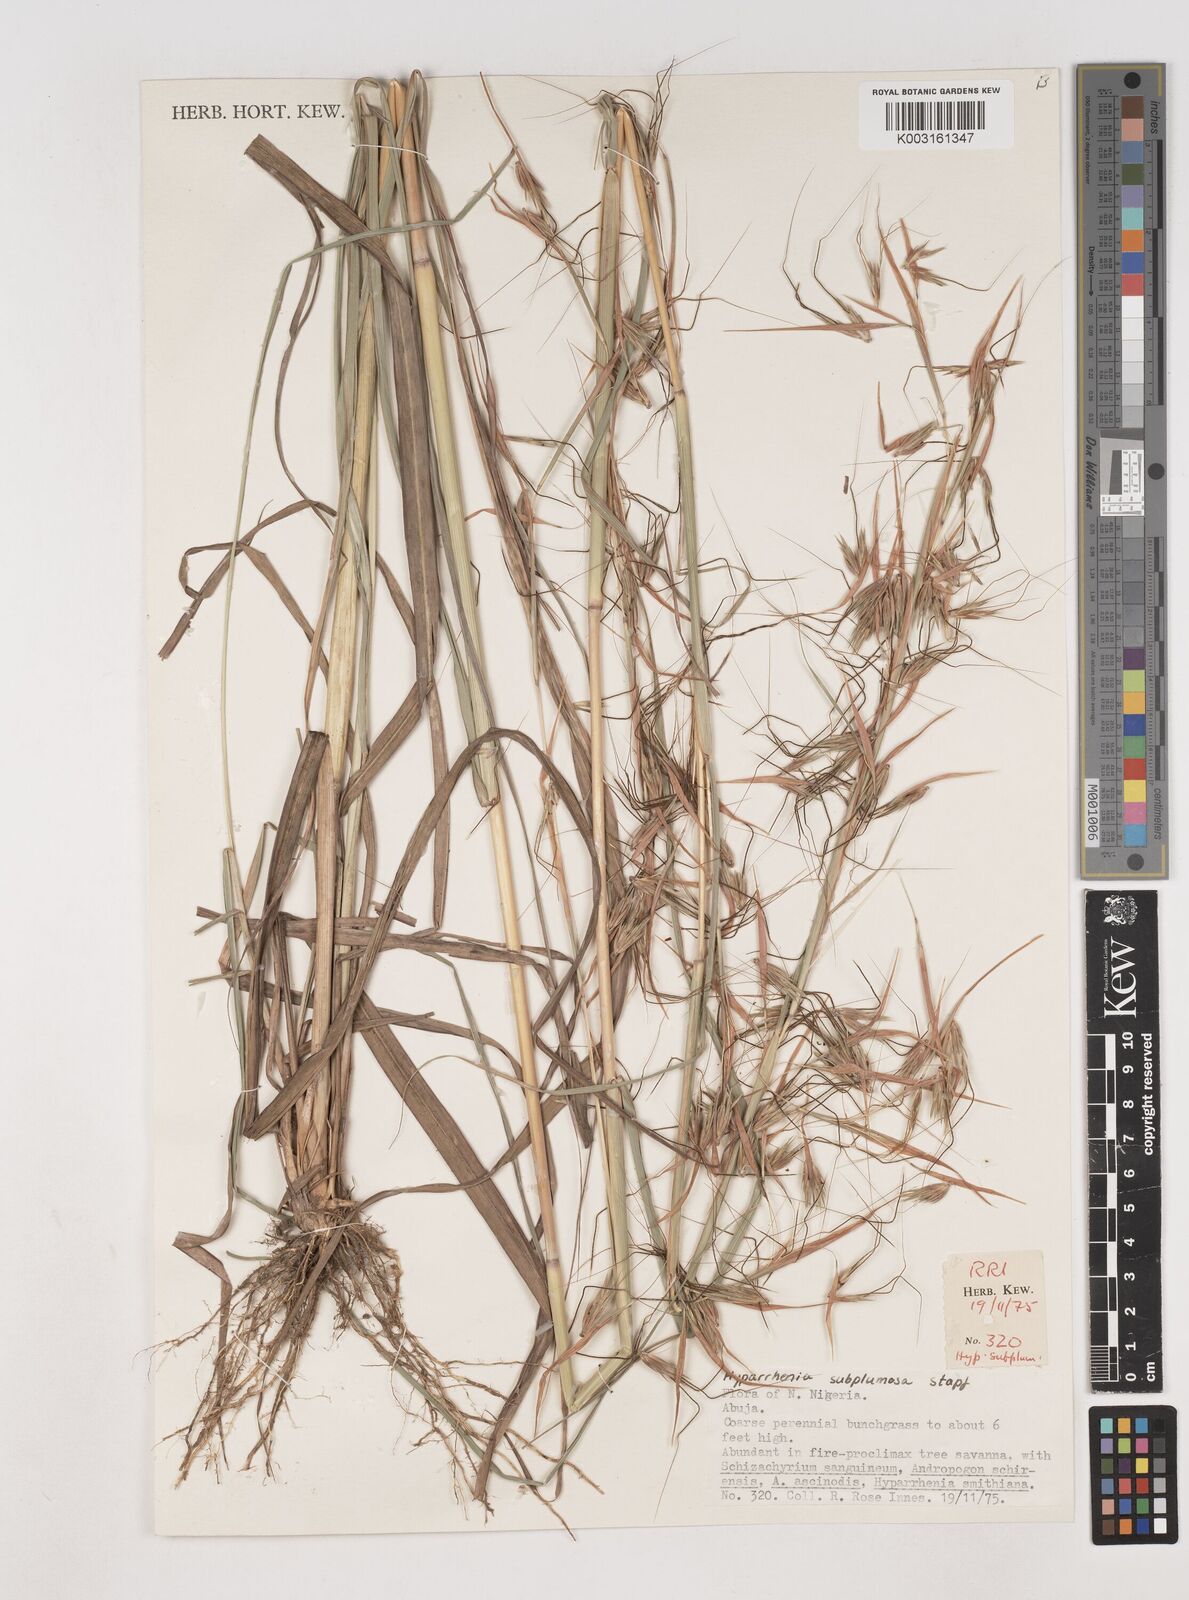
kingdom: Plantae
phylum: Tracheophyta
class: Liliopsida
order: Poales
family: Poaceae
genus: Hyparrhenia
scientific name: Hyparrhenia subplumosa
